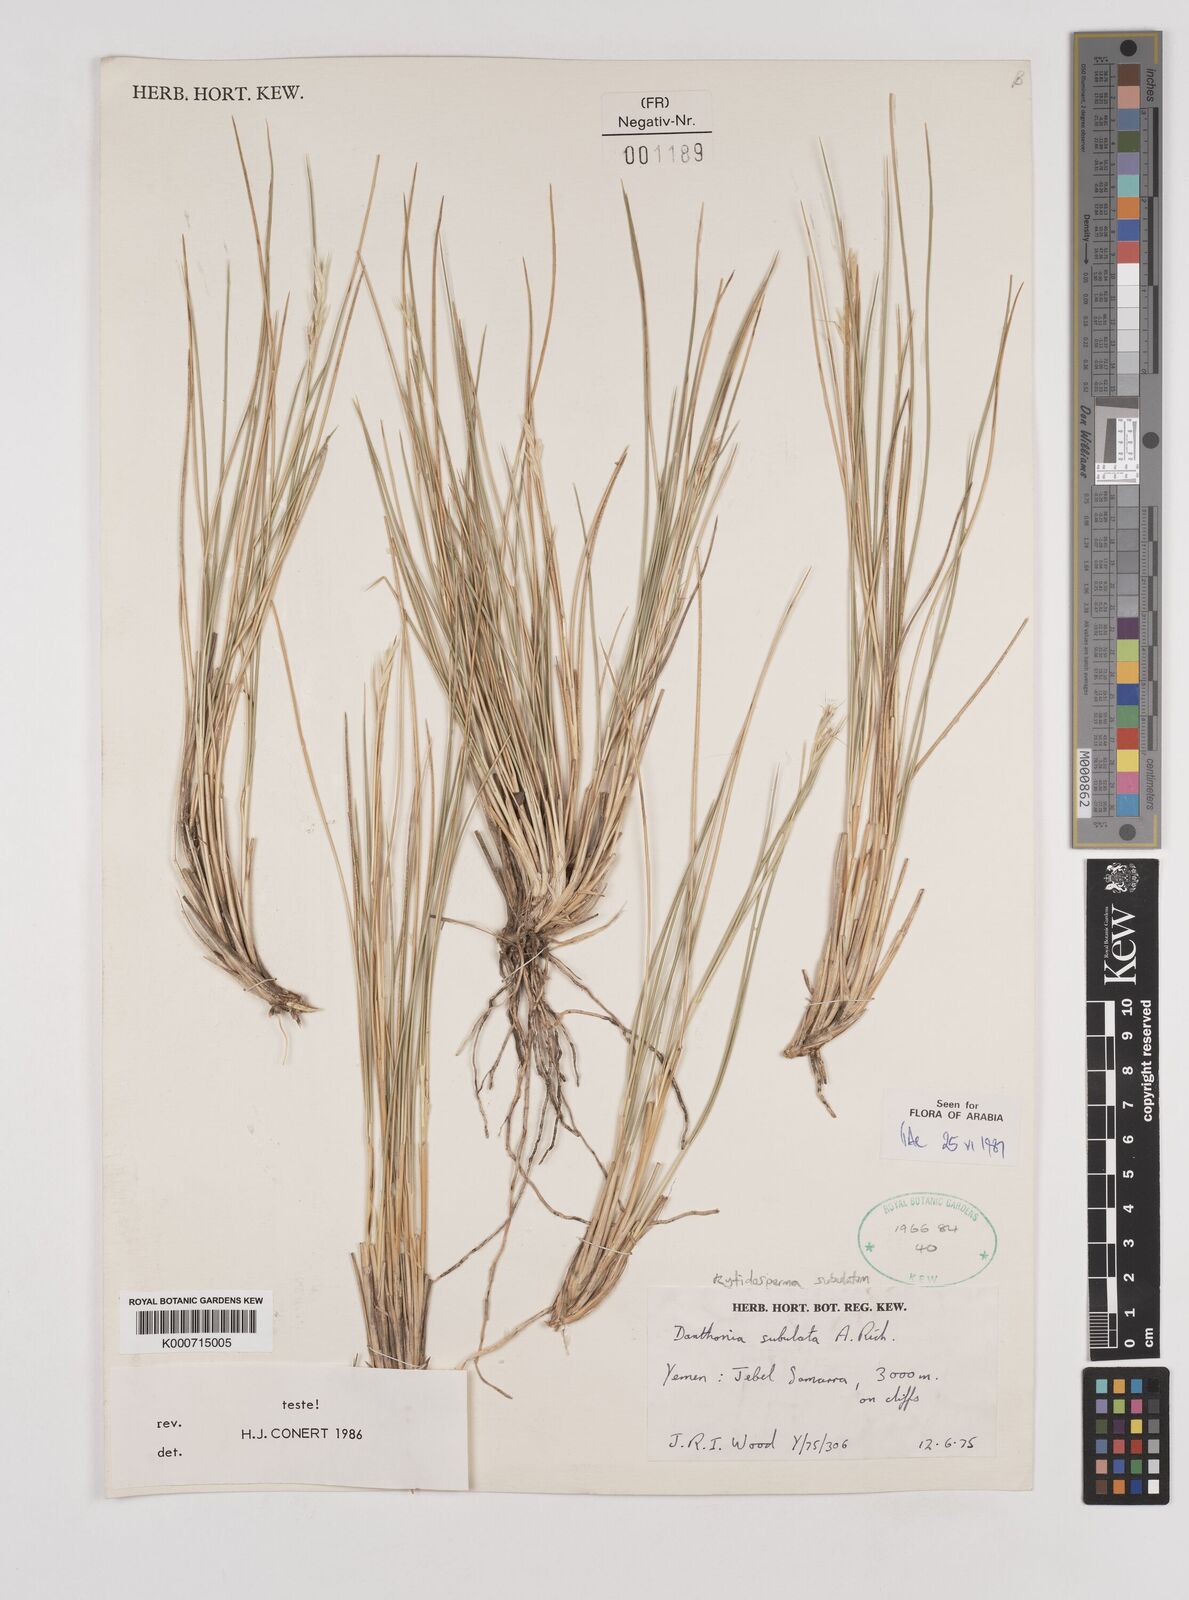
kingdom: Plantae
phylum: Tracheophyta
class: Liliopsida
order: Poales
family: Poaceae
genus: Tenaxia
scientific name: Tenaxia subulata
